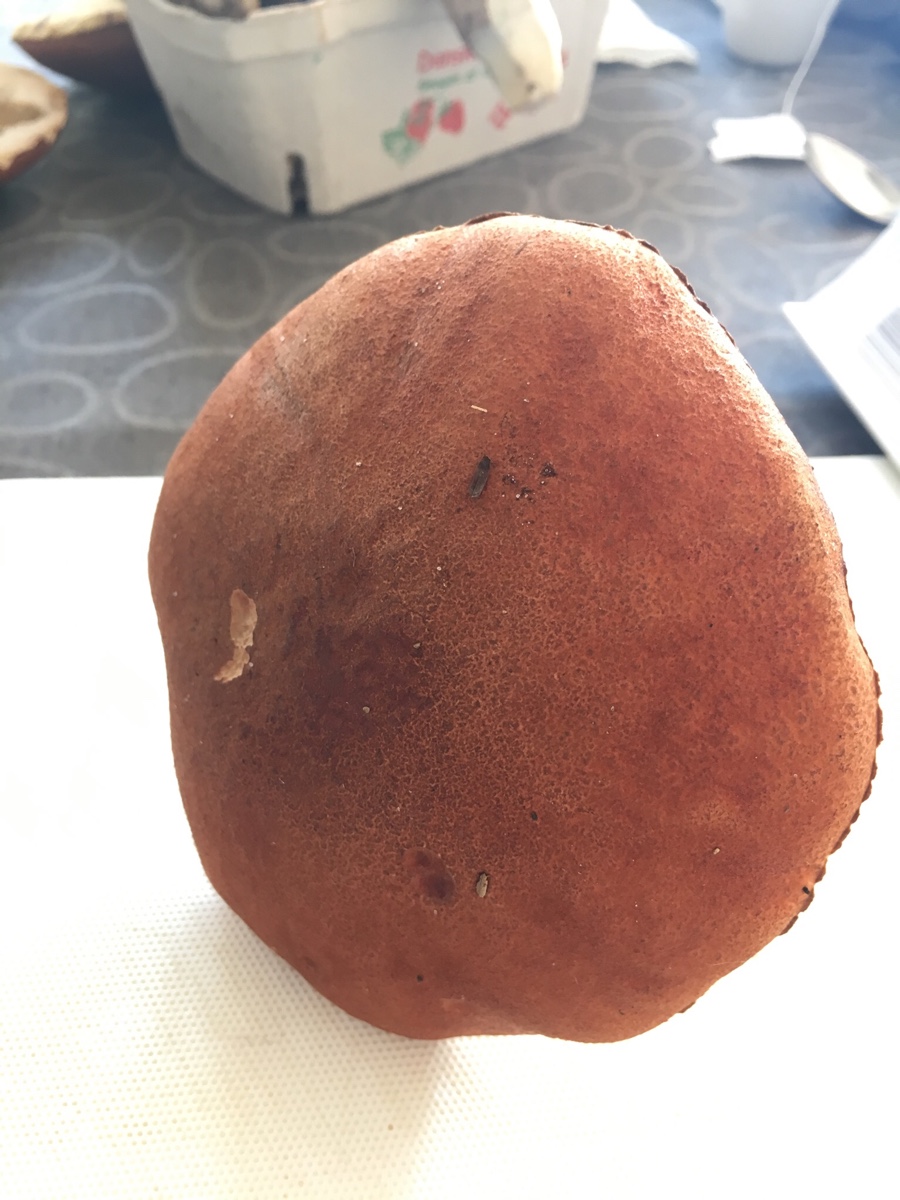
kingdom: Fungi
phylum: Basidiomycota
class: Agaricomycetes
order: Boletales
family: Boletaceae
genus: Leccinum
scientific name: Leccinum aurantiacum
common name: rustrød skælrørhat
